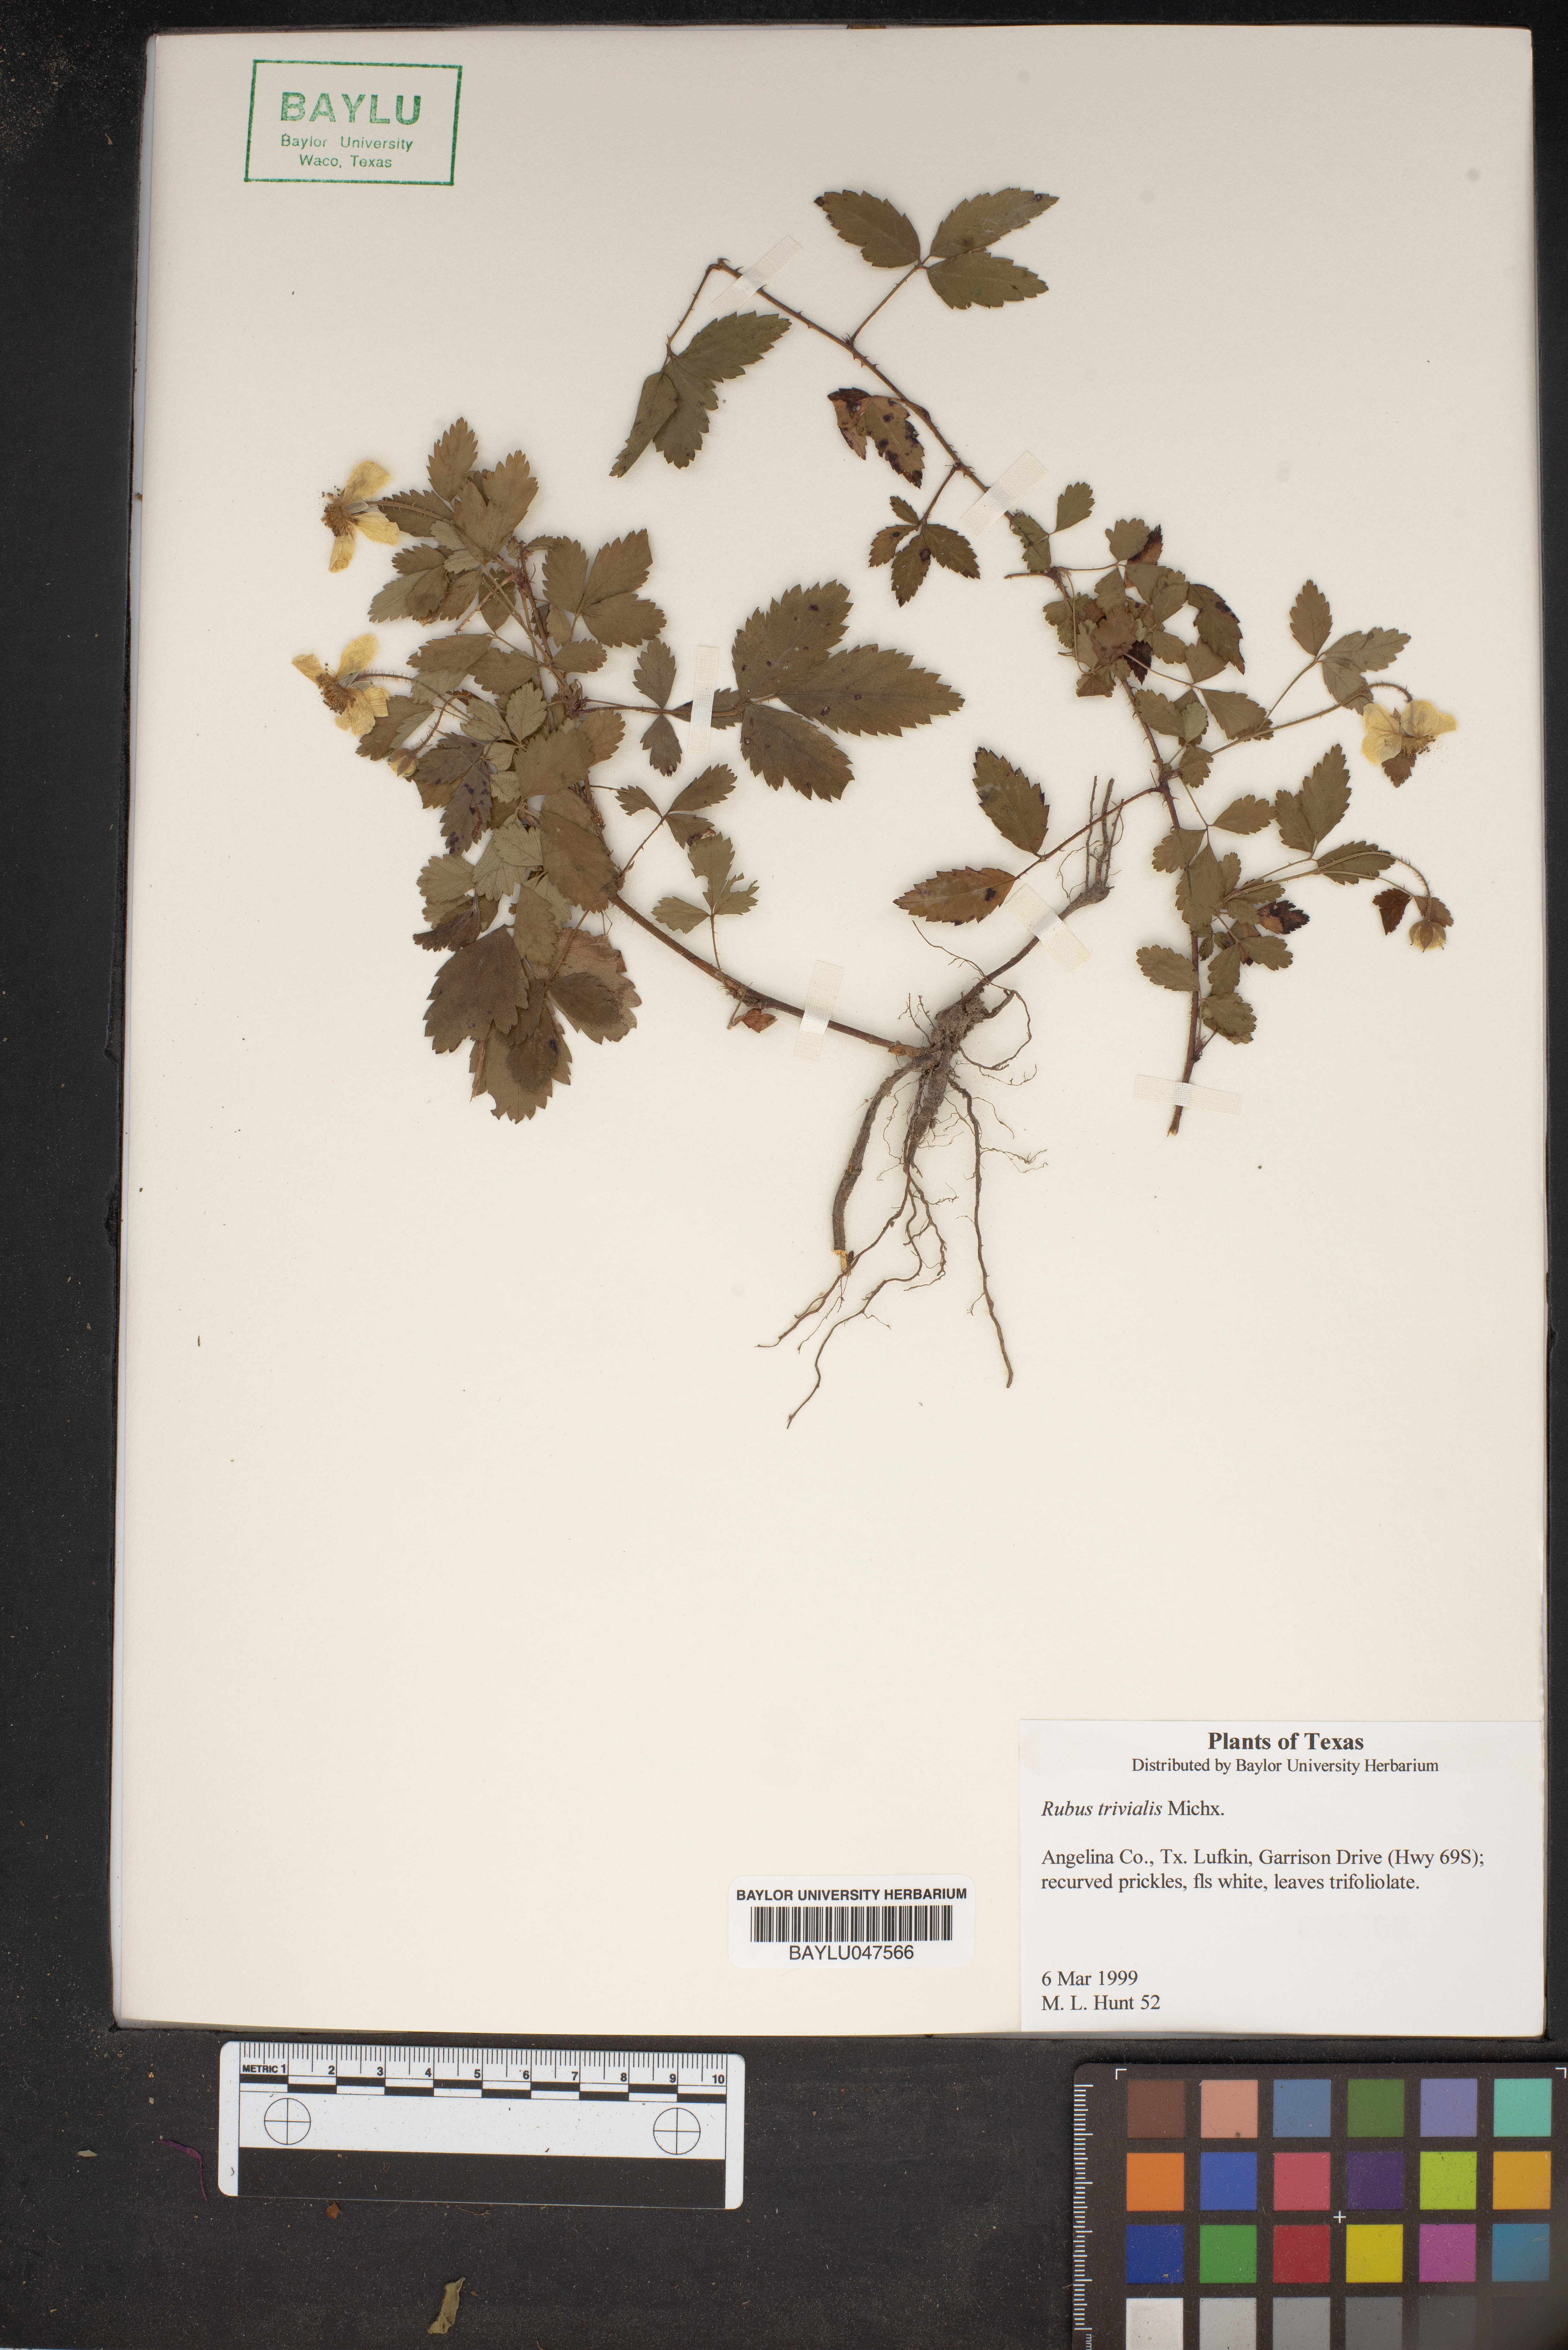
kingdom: Plantae
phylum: Tracheophyta
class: Magnoliopsida
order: Rosales
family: Rosaceae
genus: Rubus
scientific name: Rubus trivialis
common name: Southern dewberry
